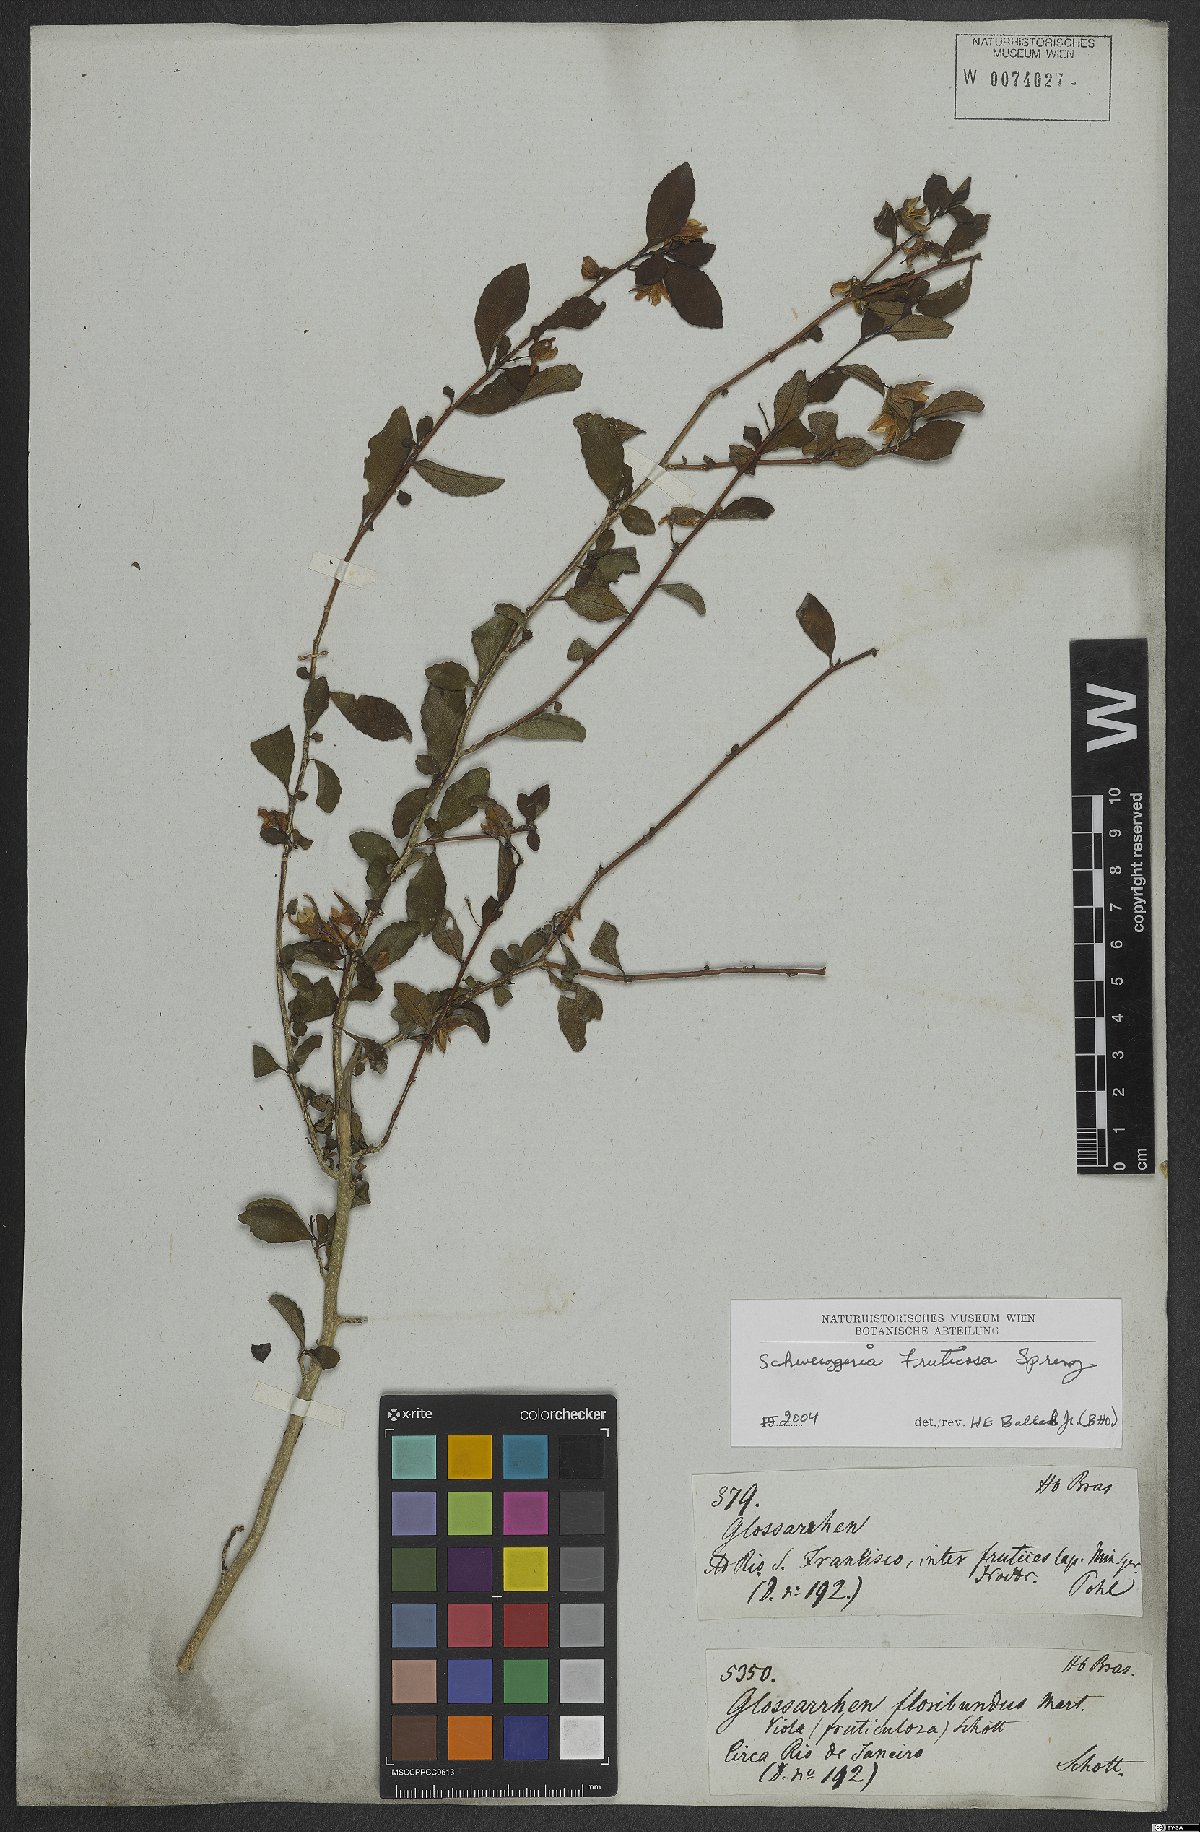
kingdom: Plantae
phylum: Tracheophyta
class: Magnoliopsida
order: Malpighiales
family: Violaceae
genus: Schweiggeria
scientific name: Schweiggeria fruticosa
